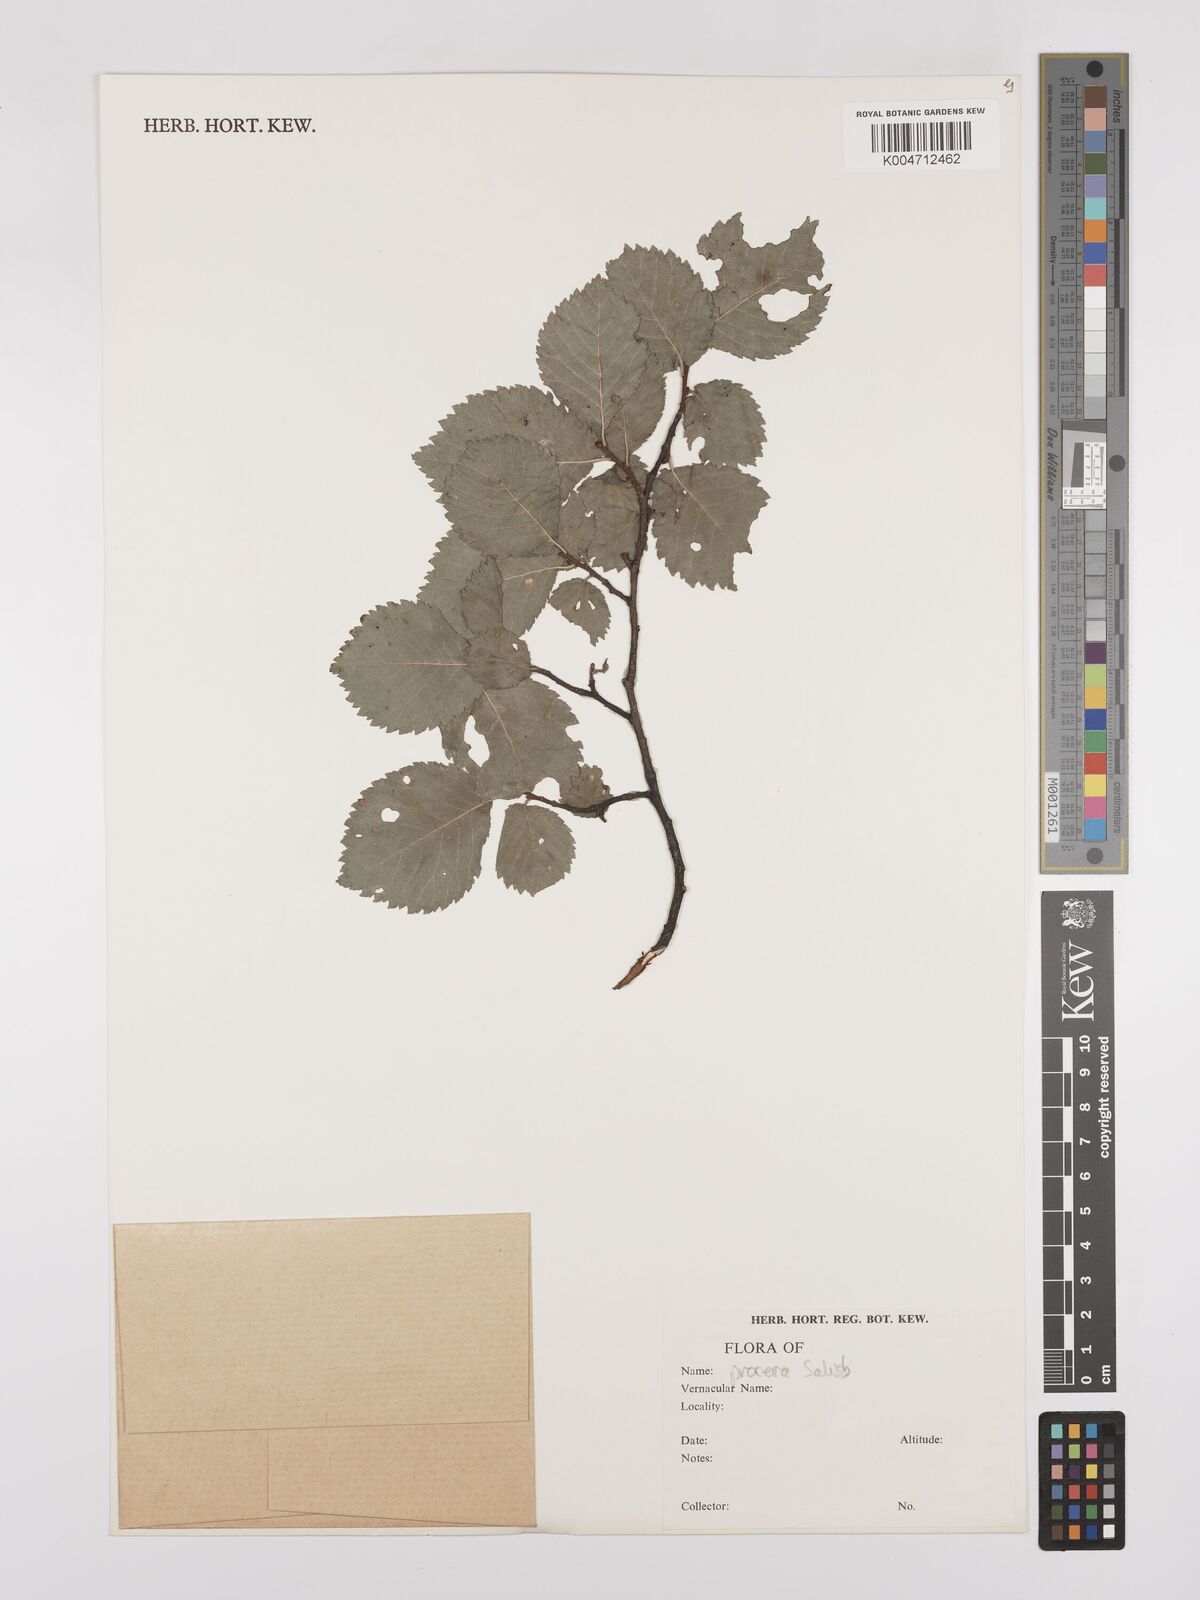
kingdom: Plantae
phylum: Tracheophyta
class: Magnoliopsida
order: Rosales
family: Ulmaceae
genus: Ulmus
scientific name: Ulmus minor
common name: Small-leaved elm
